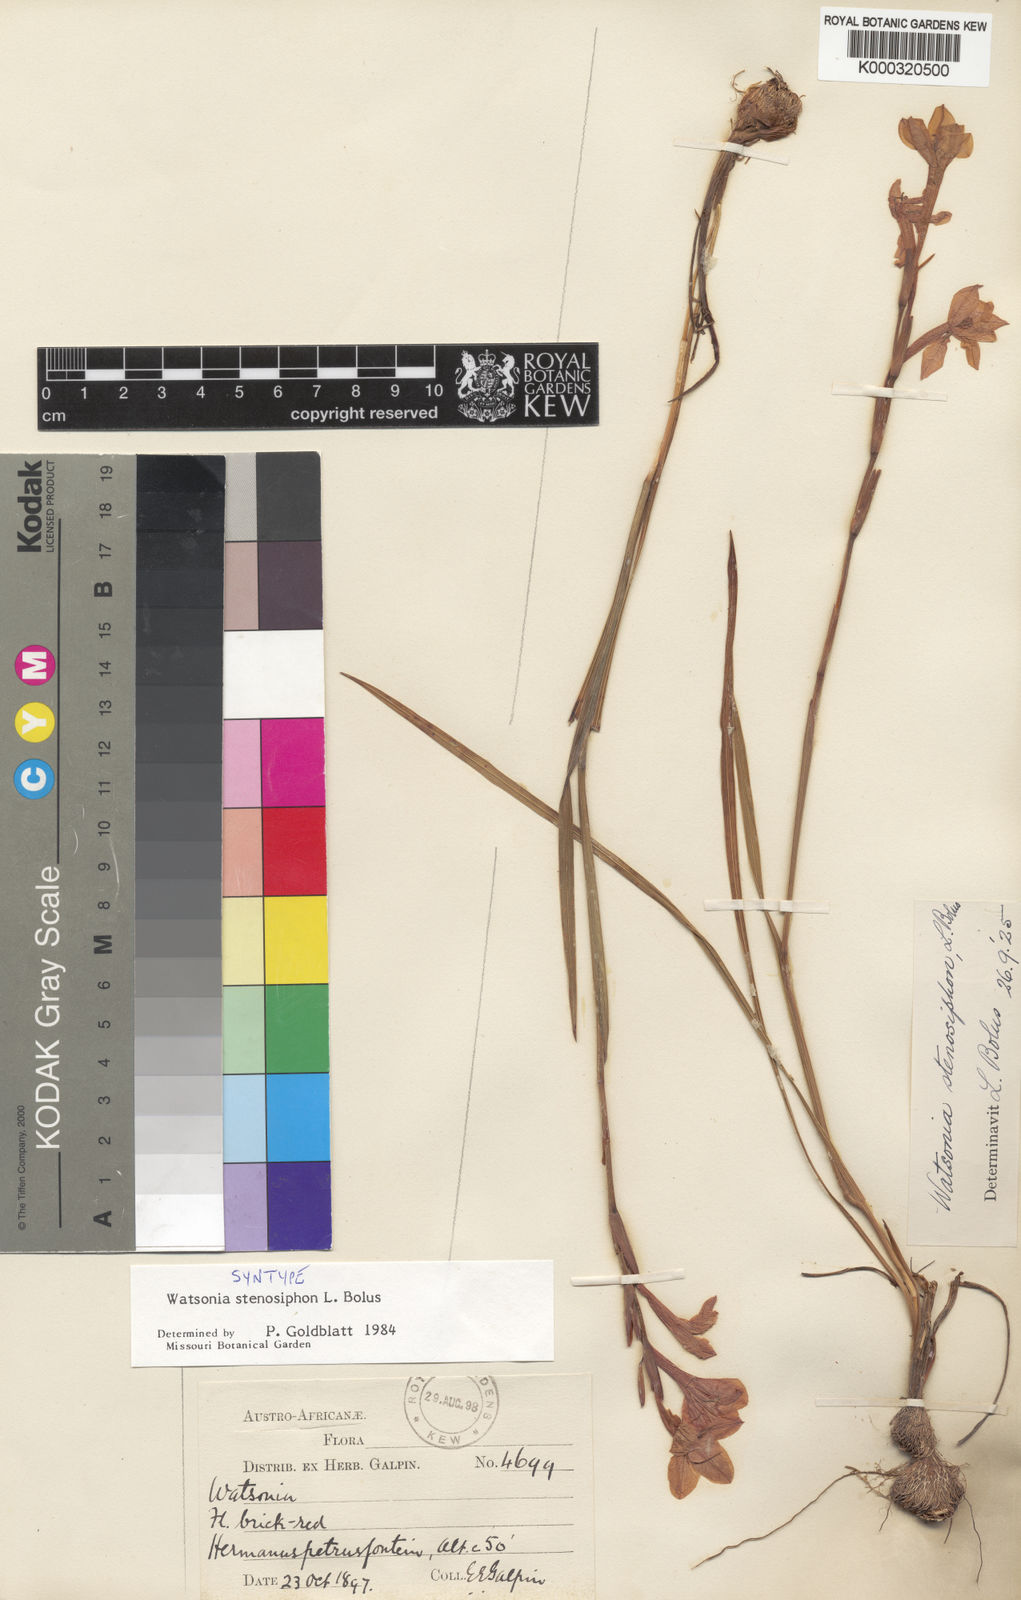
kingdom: Plantae
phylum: Tracheophyta
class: Liliopsida
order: Asparagales
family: Iridaceae
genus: Watsonia
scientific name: Watsonia stenosiphon
